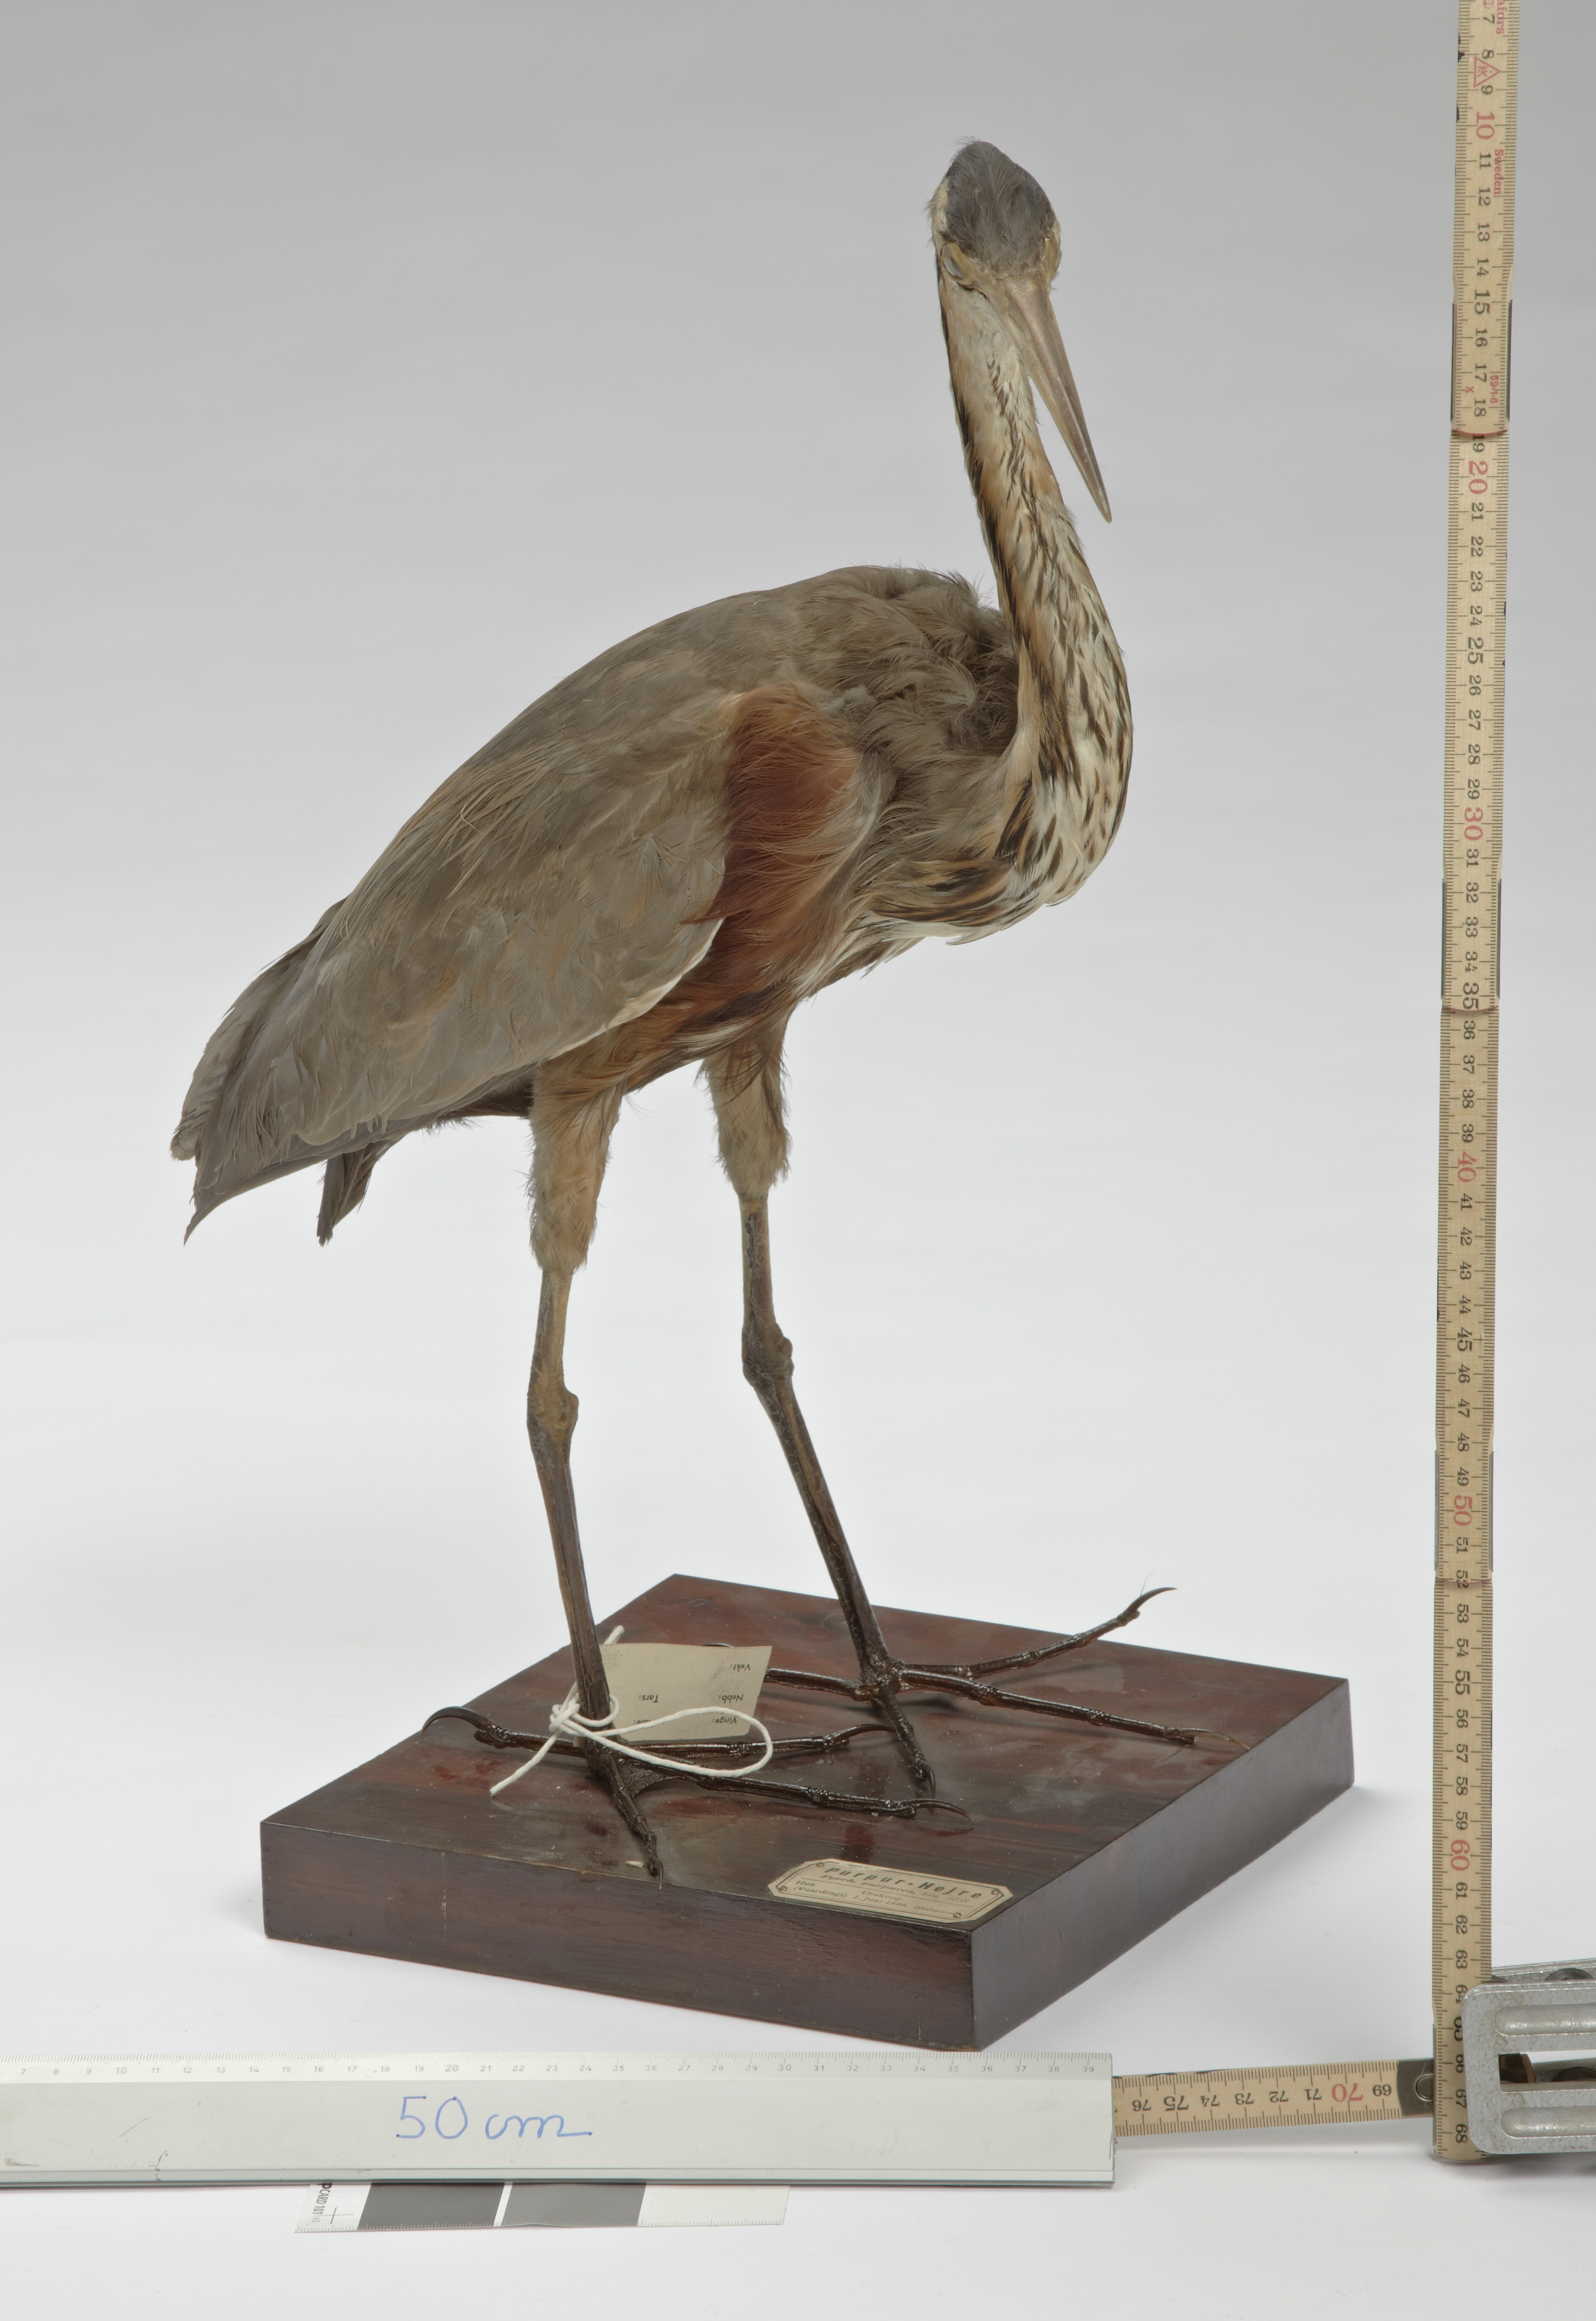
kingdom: Animalia
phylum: Chordata
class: Aves
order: Pelecaniformes
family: Ardeidae
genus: Ardea
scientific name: Ardea purpurea
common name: Purple heron
